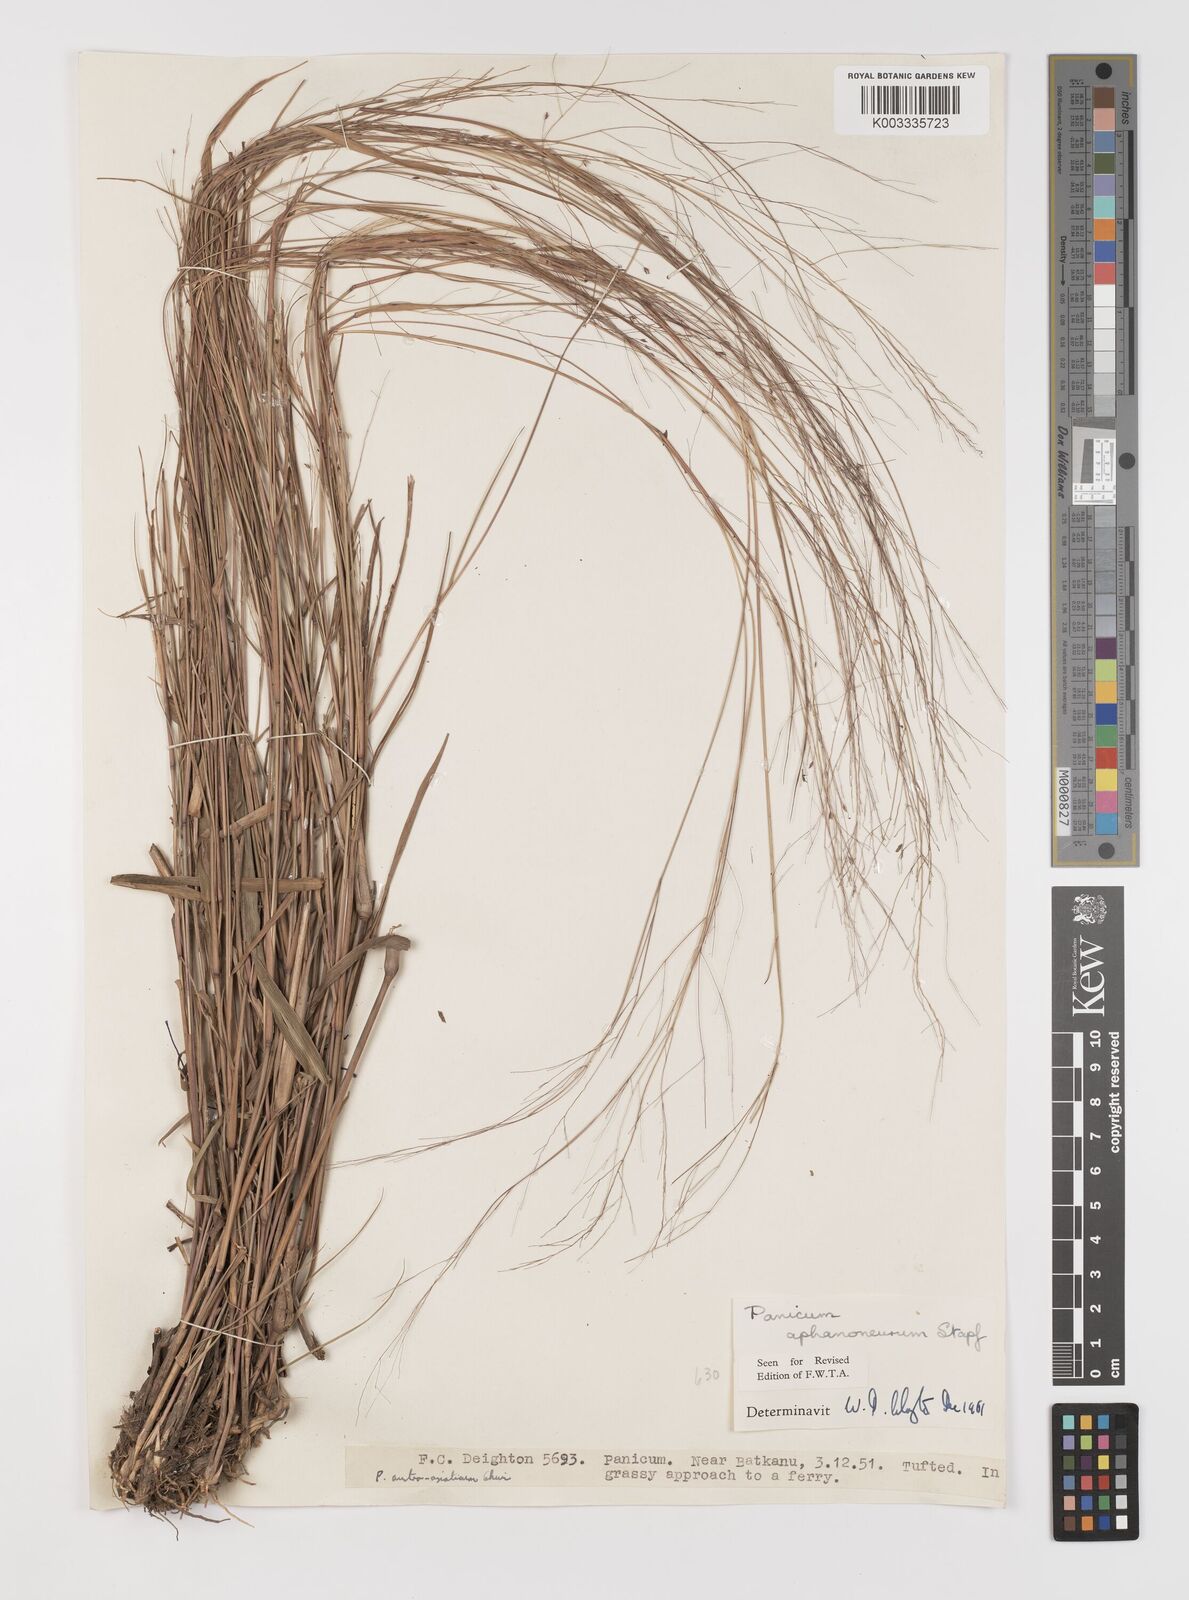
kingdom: Plantae
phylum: Tracheophyta
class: Liliopsida
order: Poales
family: Poaceae
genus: Panicum
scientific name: Panicum fluviicola
